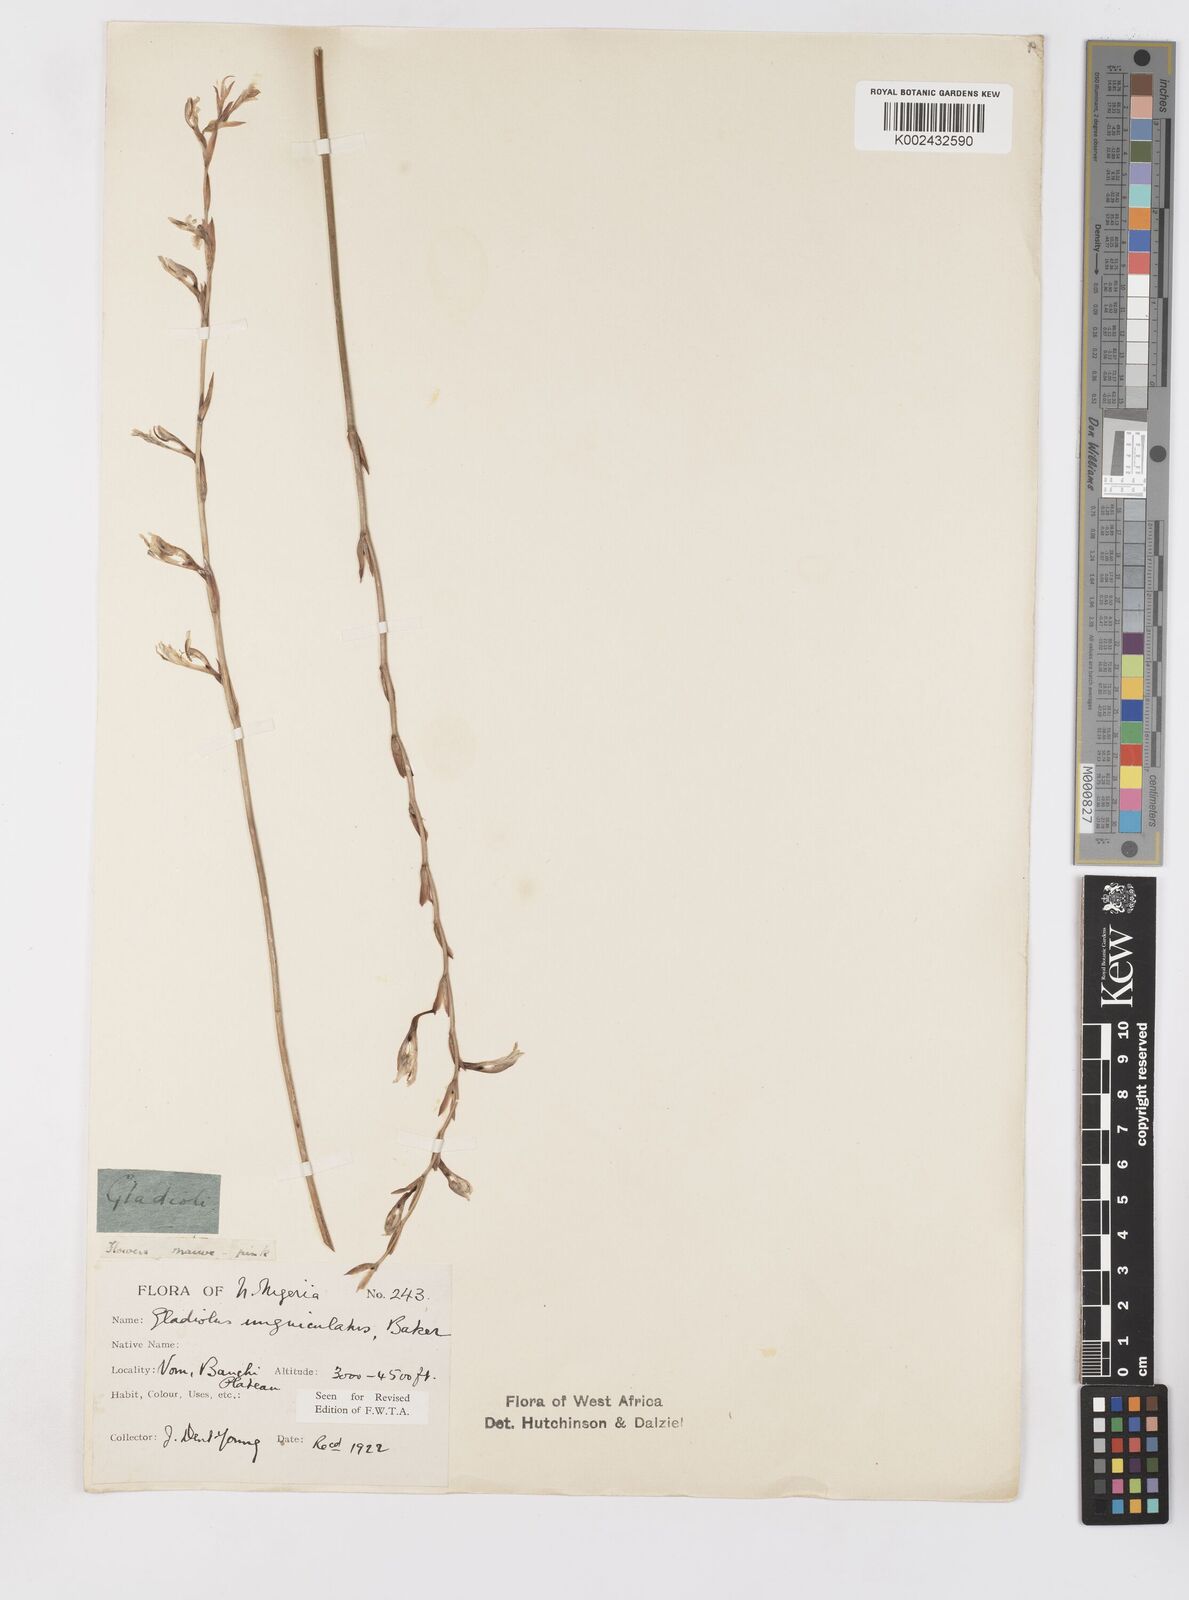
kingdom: Plantae
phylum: Tracheophyta
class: Liliopsida
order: Asparagales
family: Iridaceae
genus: Gladiolus
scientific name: Gladiolus unguiculatus
